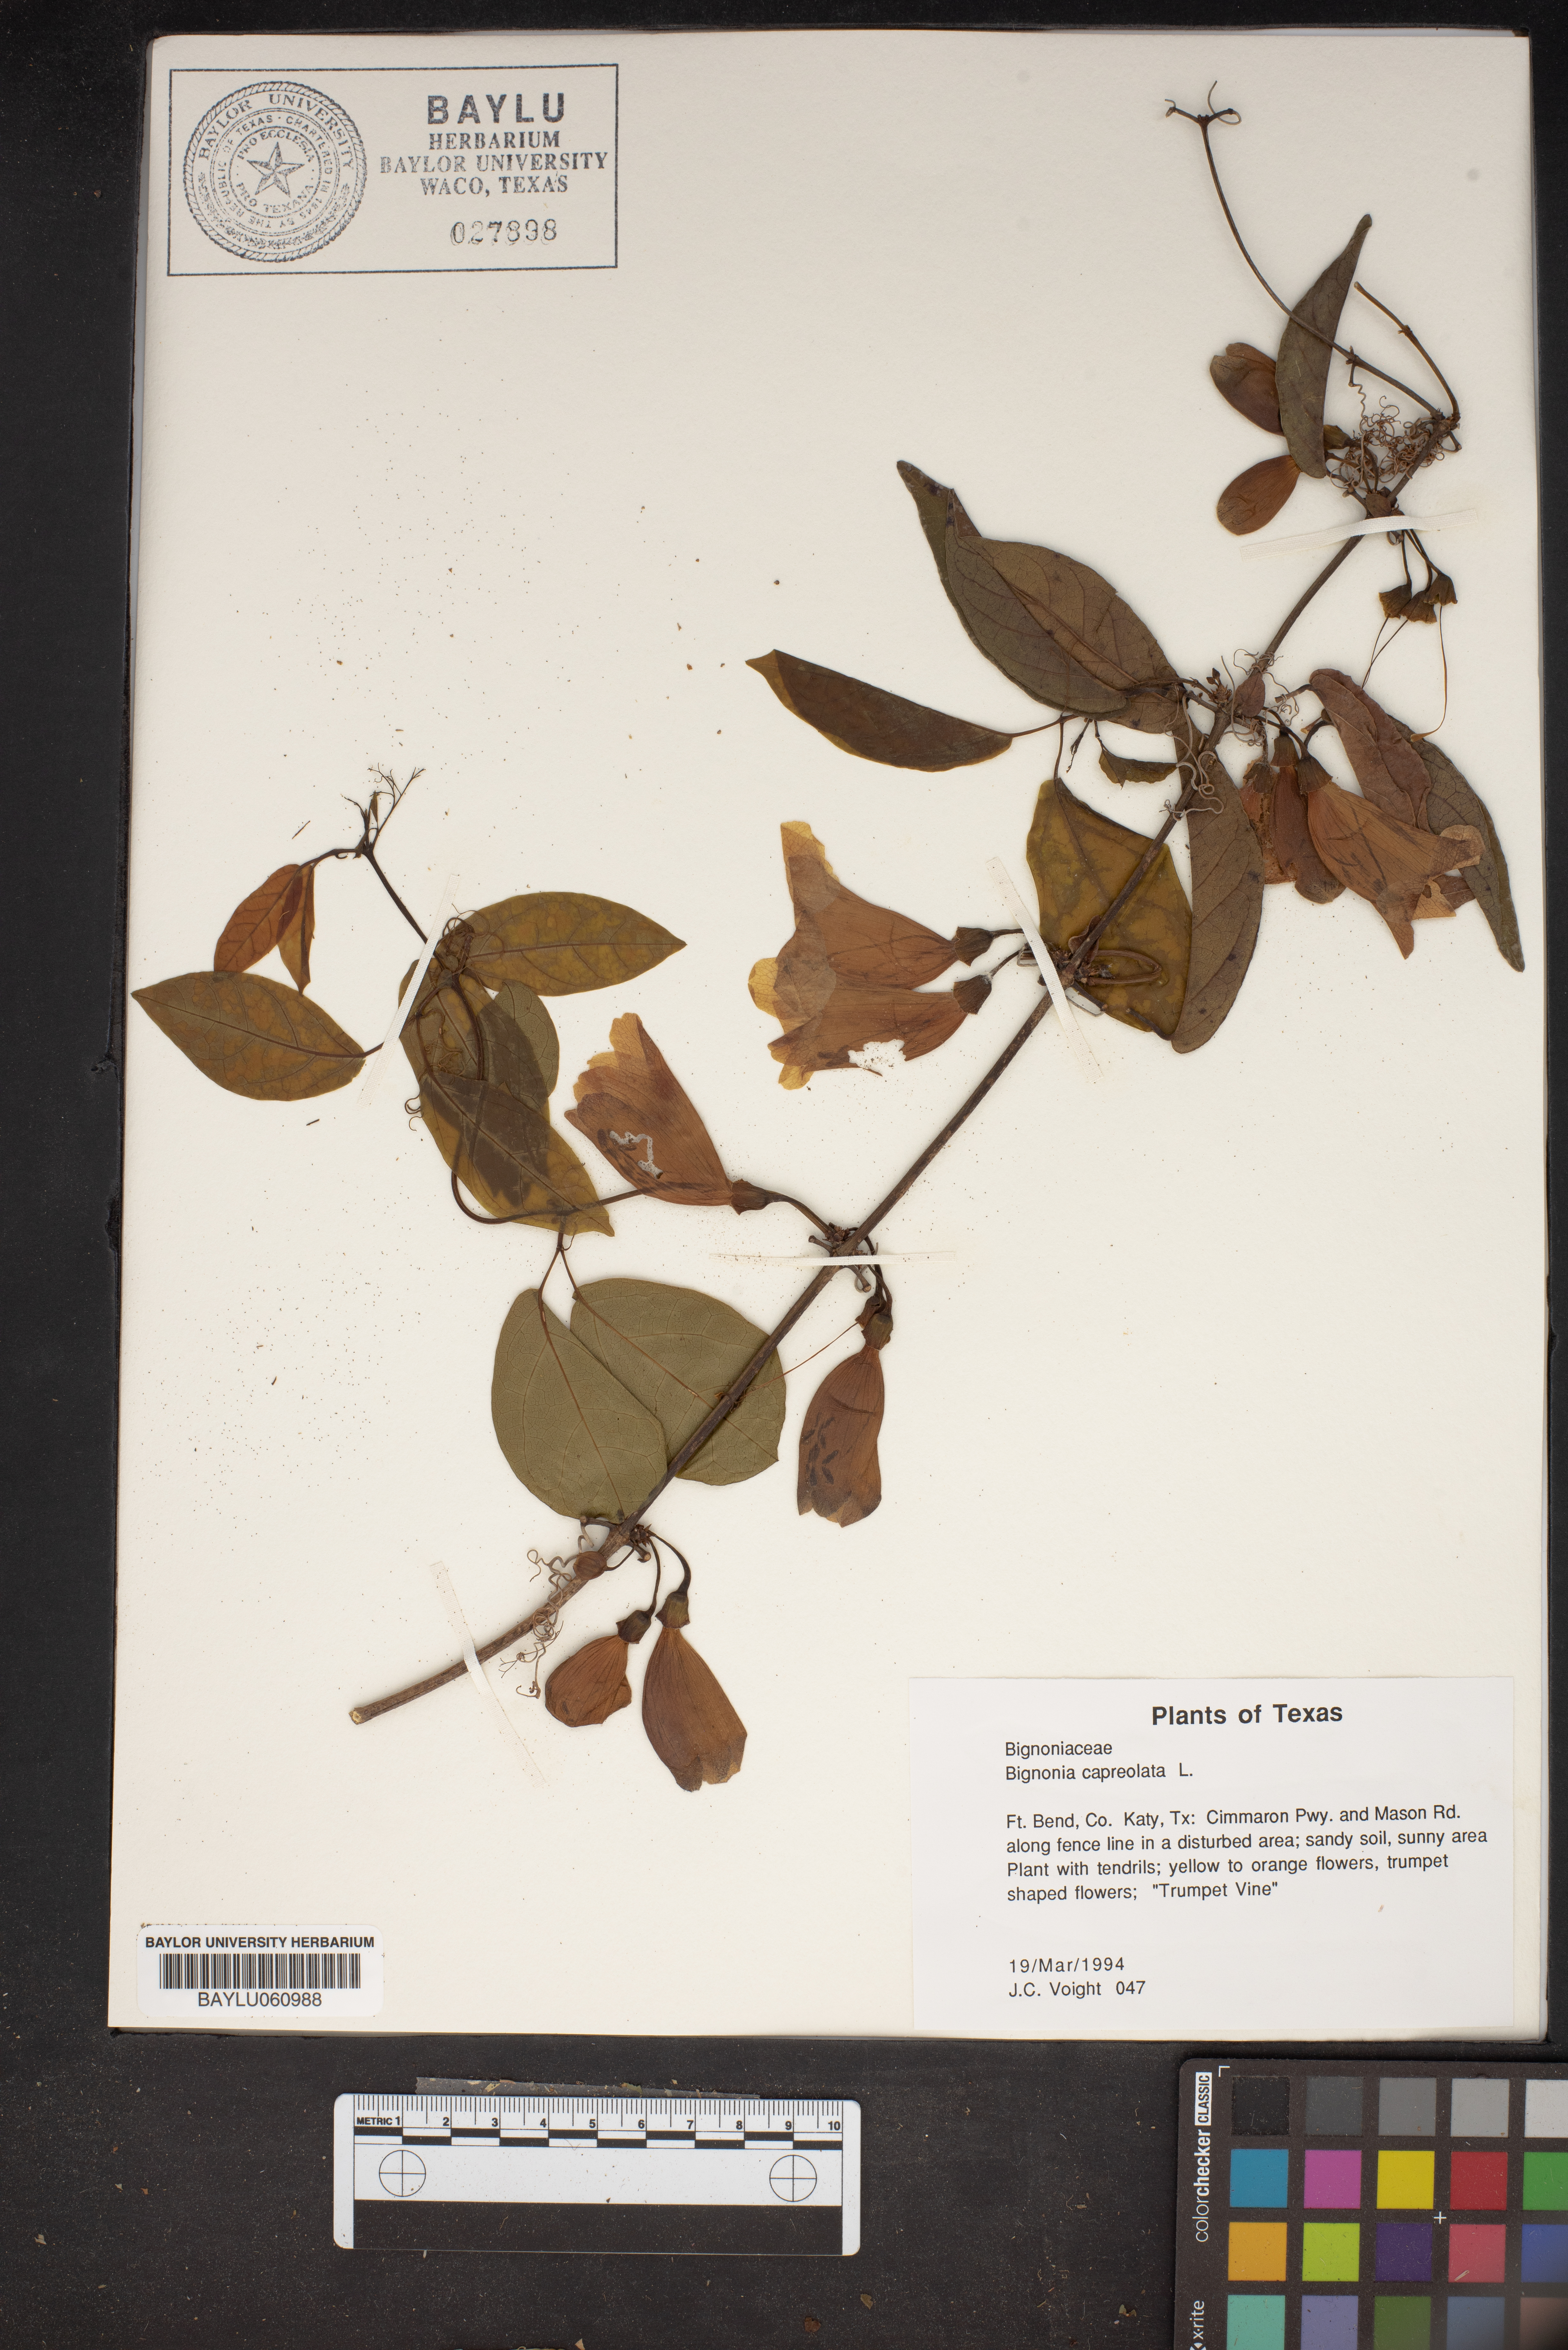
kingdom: Plantae
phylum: Tracheophyta
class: Magnoliopsida
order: Lamiales
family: Bignoniaceae
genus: Bignonia
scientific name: Bignonia capreolata
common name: Crossvine
